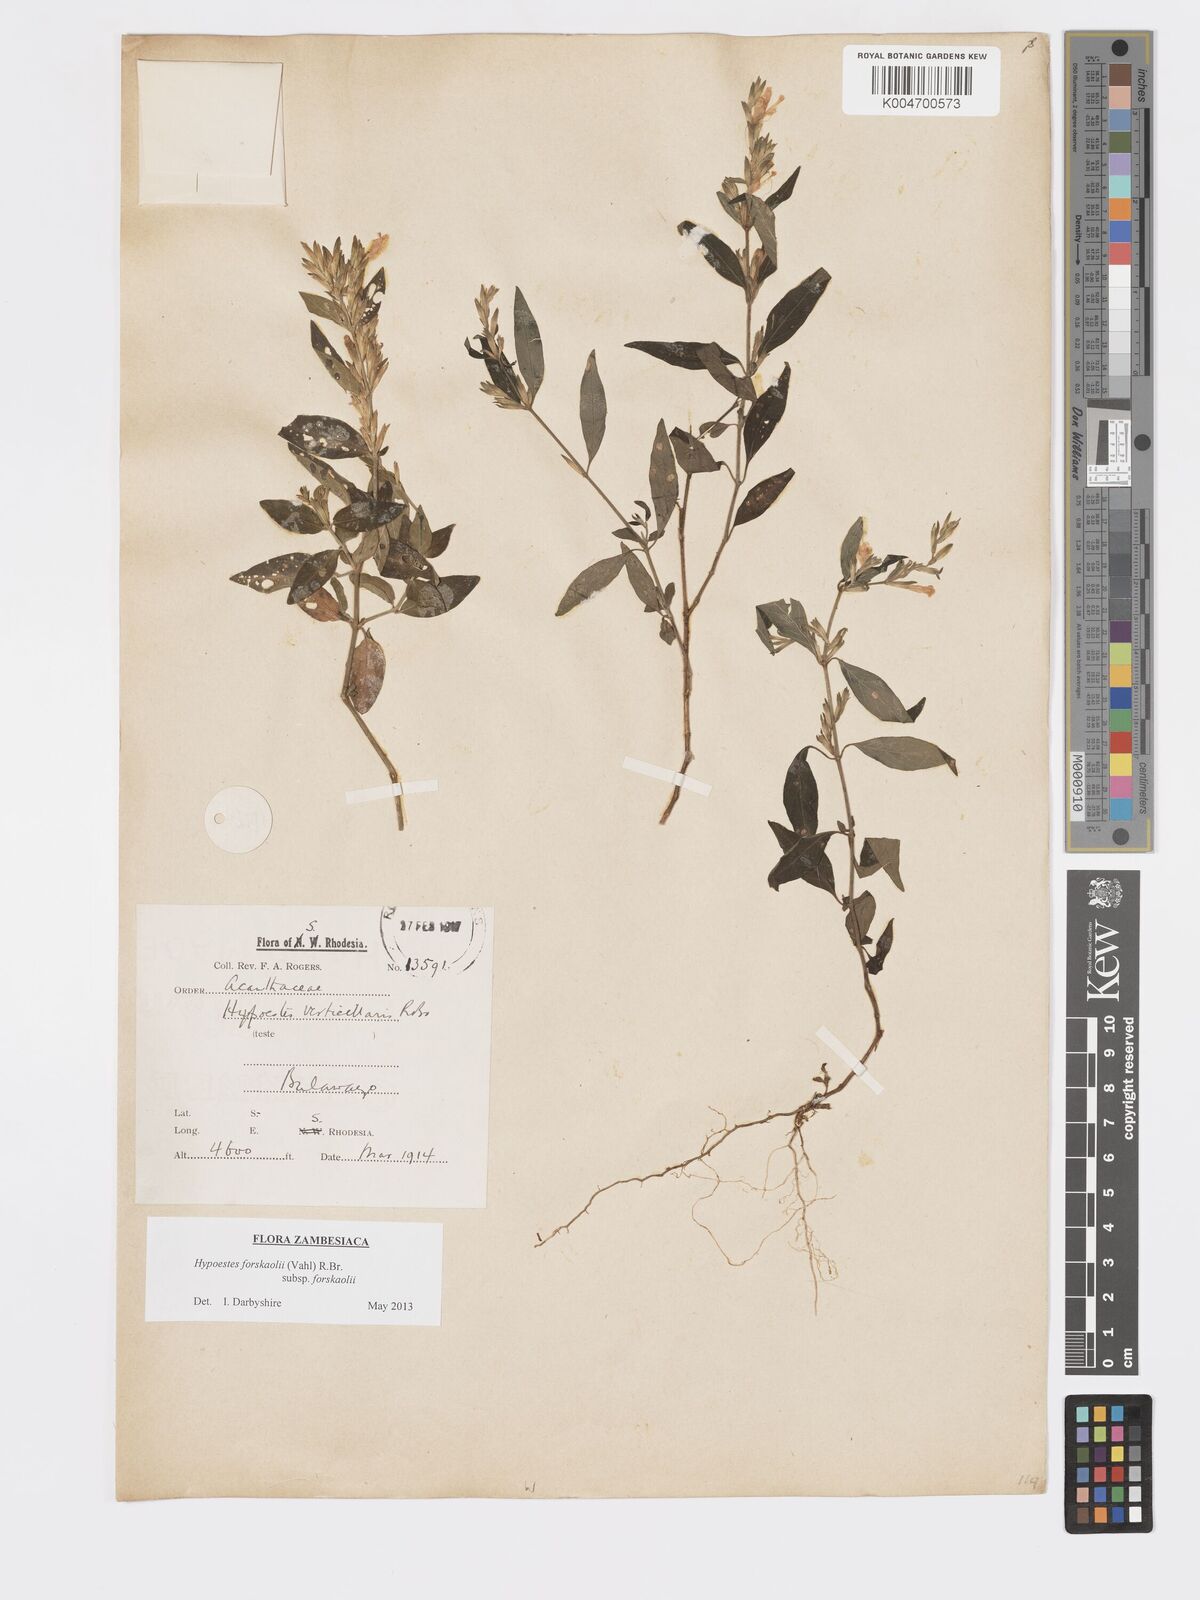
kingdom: Plantae
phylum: Tracheophyta
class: Magnoliopsida
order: Lamiales
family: Acanthaceae
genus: Hypoestes
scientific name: Hypoestes forskaolii
